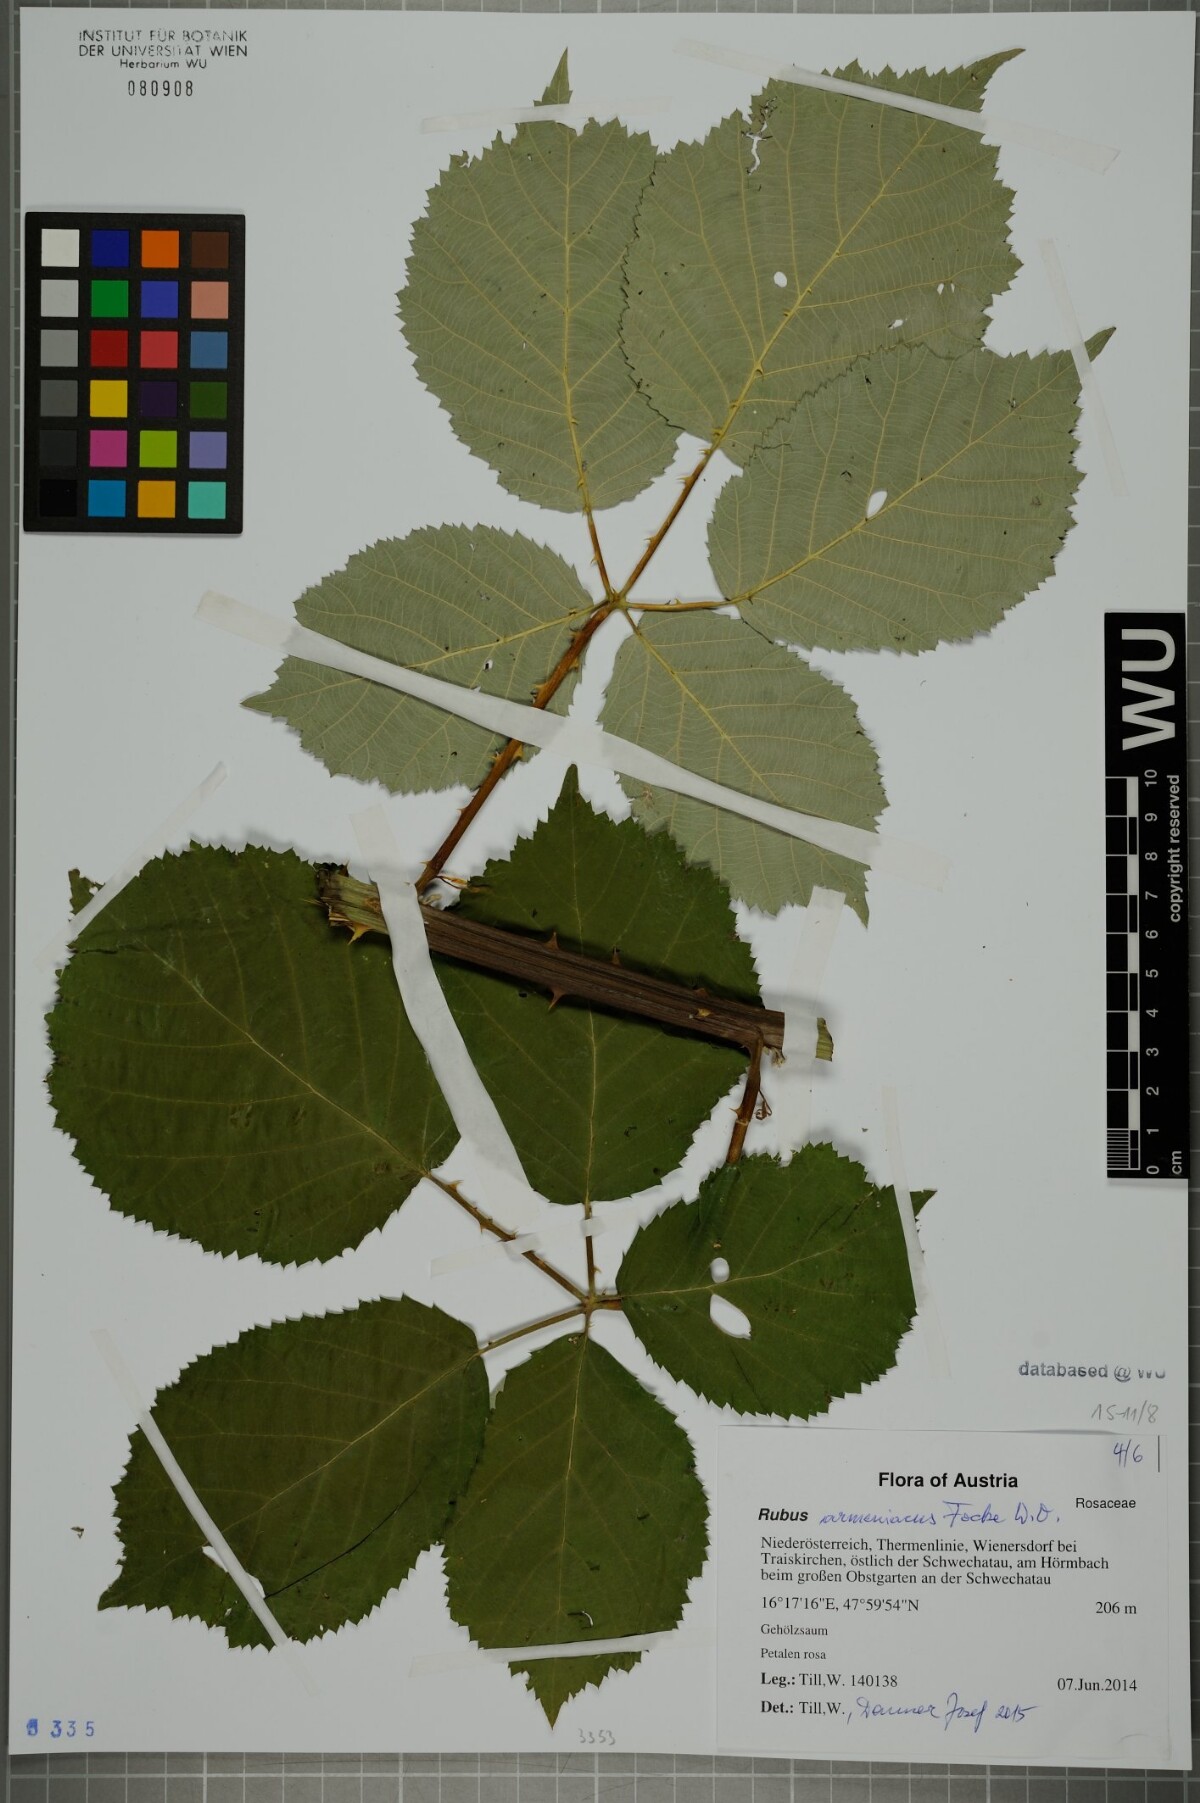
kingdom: Plantae
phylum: Tracheophyta
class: Magnoliopsida
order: Rosales
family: Rosaceae
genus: Rubus
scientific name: Rubus armeniacus
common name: Himalayan blackberry
